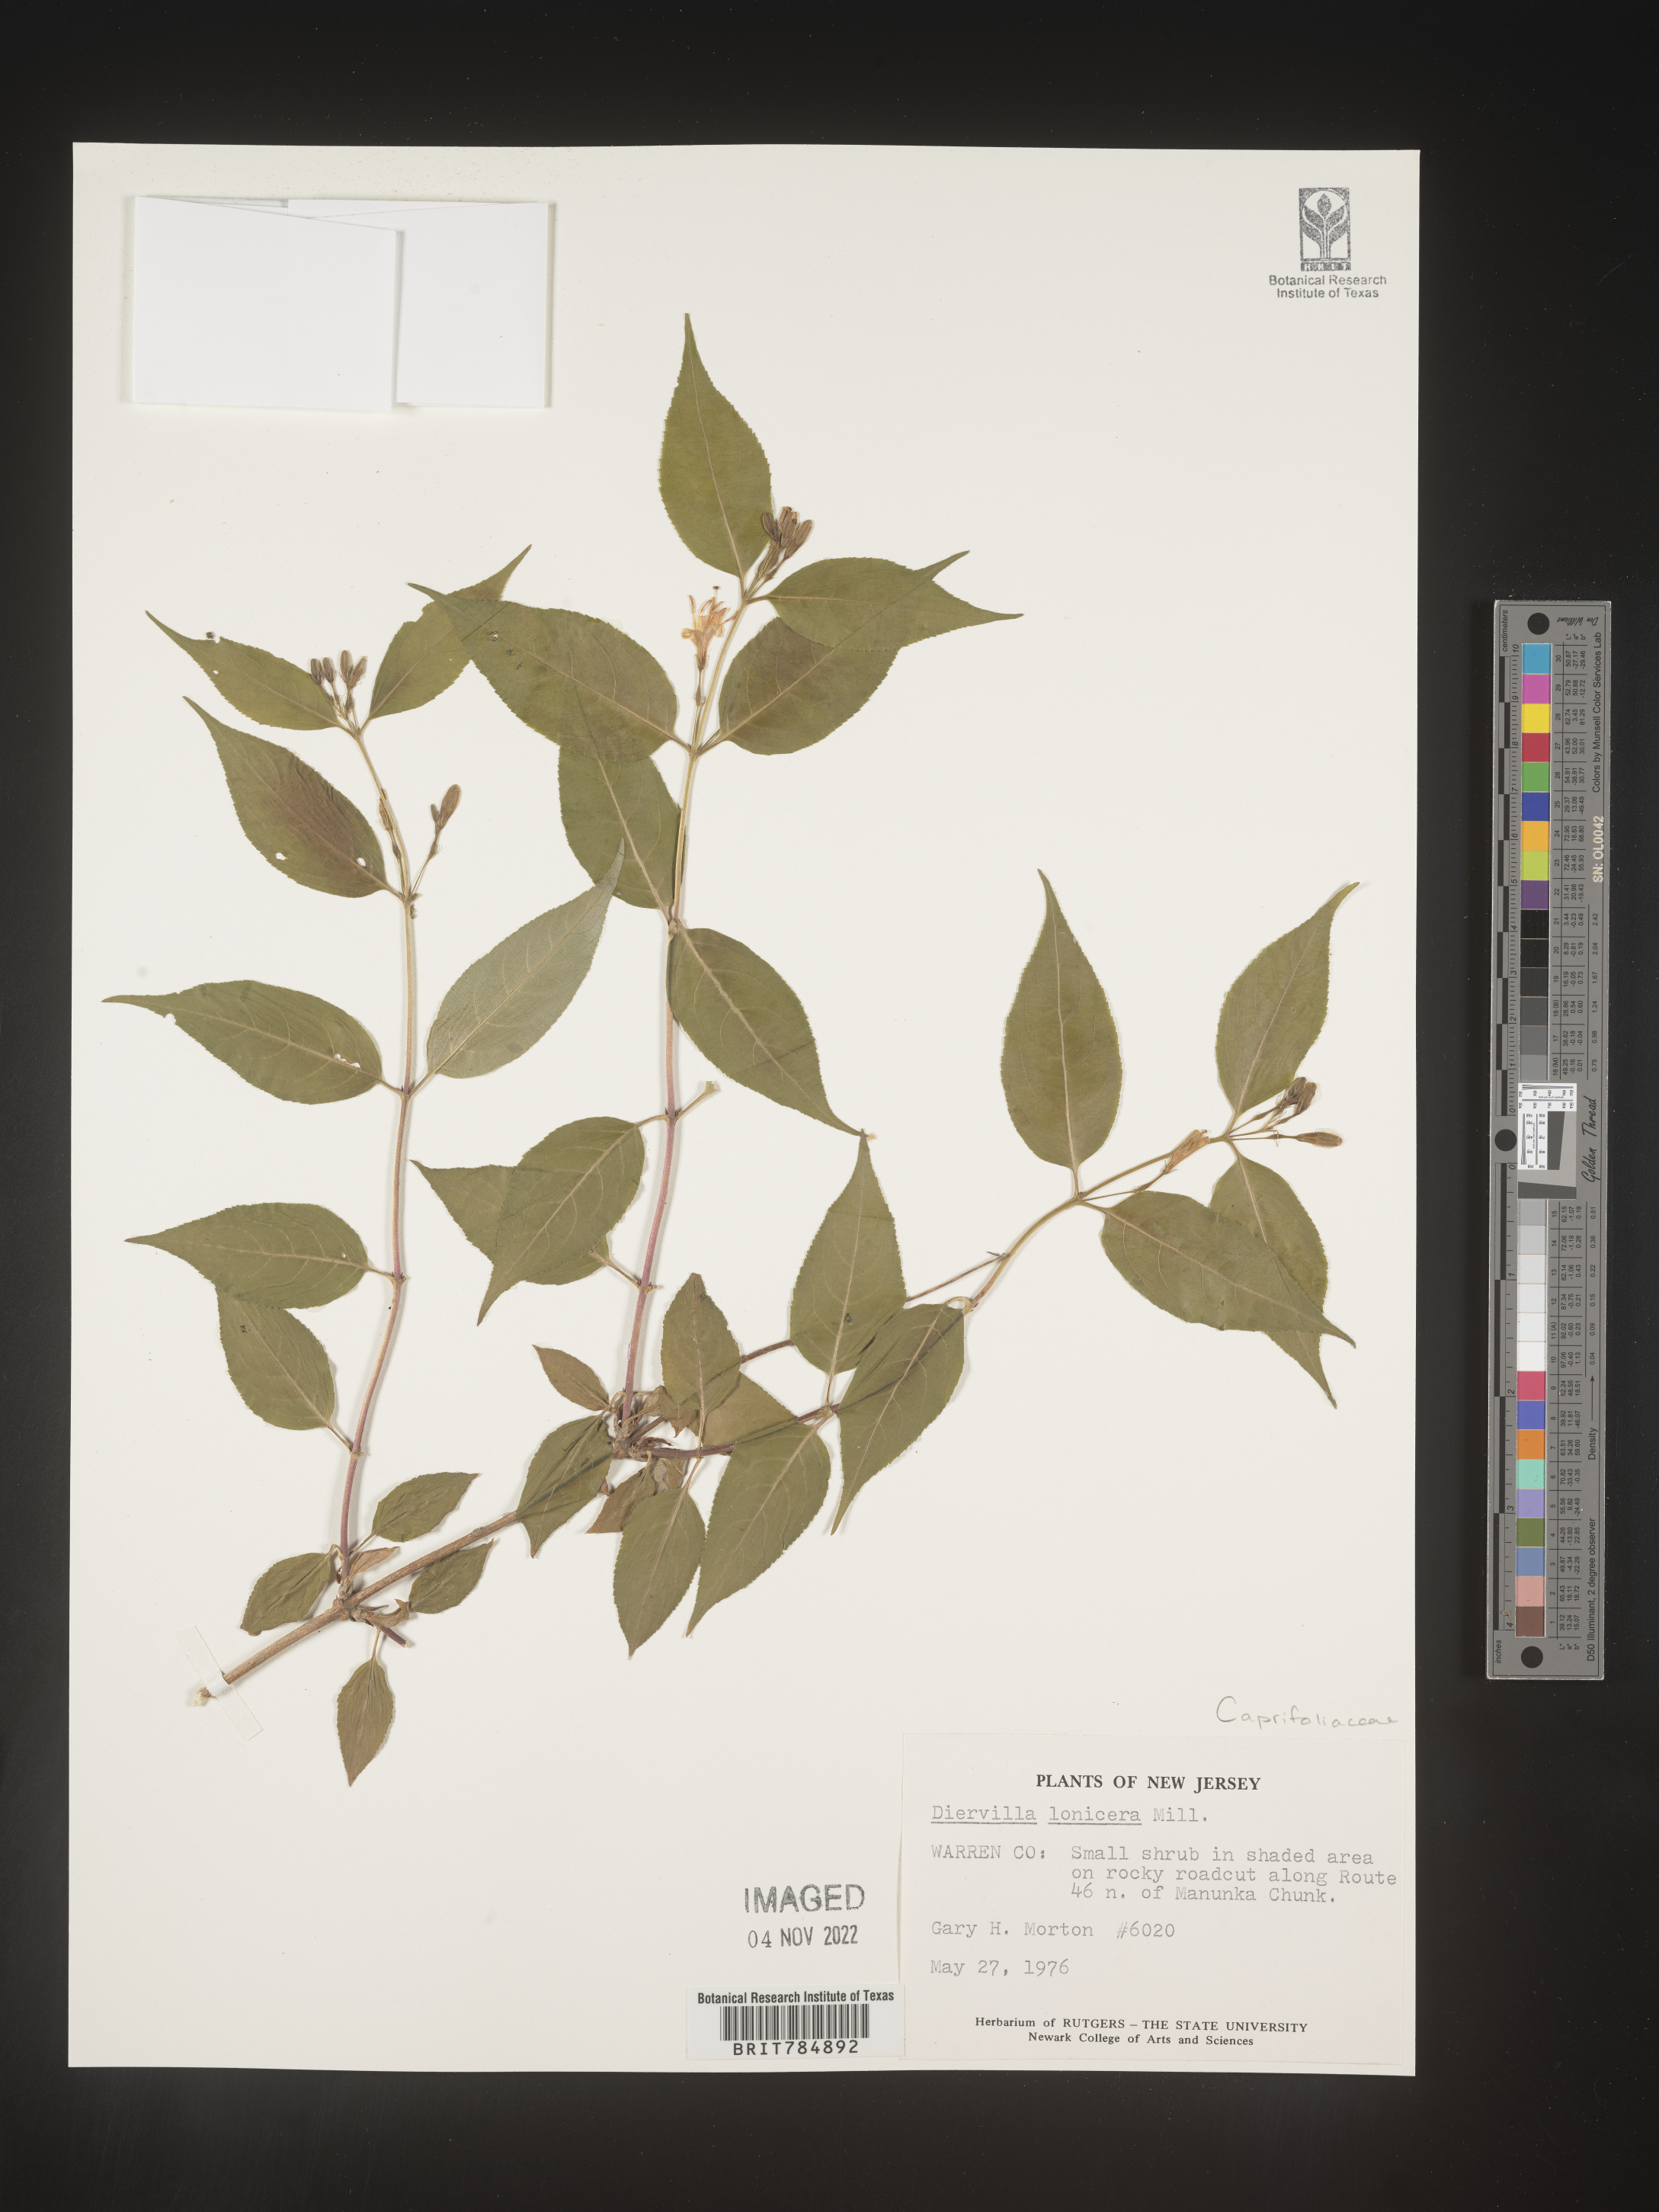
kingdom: Plantae
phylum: Tracheophyta
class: Magnoliopsida
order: Dipsacales
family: Caprifoliaceae
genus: Diervilla
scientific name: Diervilla lonicera
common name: Bush-honeysuckle
